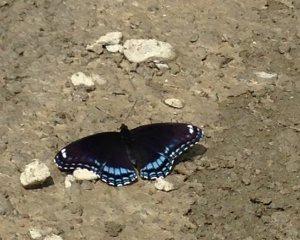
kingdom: Animalia
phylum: Arthropoda
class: Insecta
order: Lepidoptera
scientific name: Lepidoptera
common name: Butterflies
